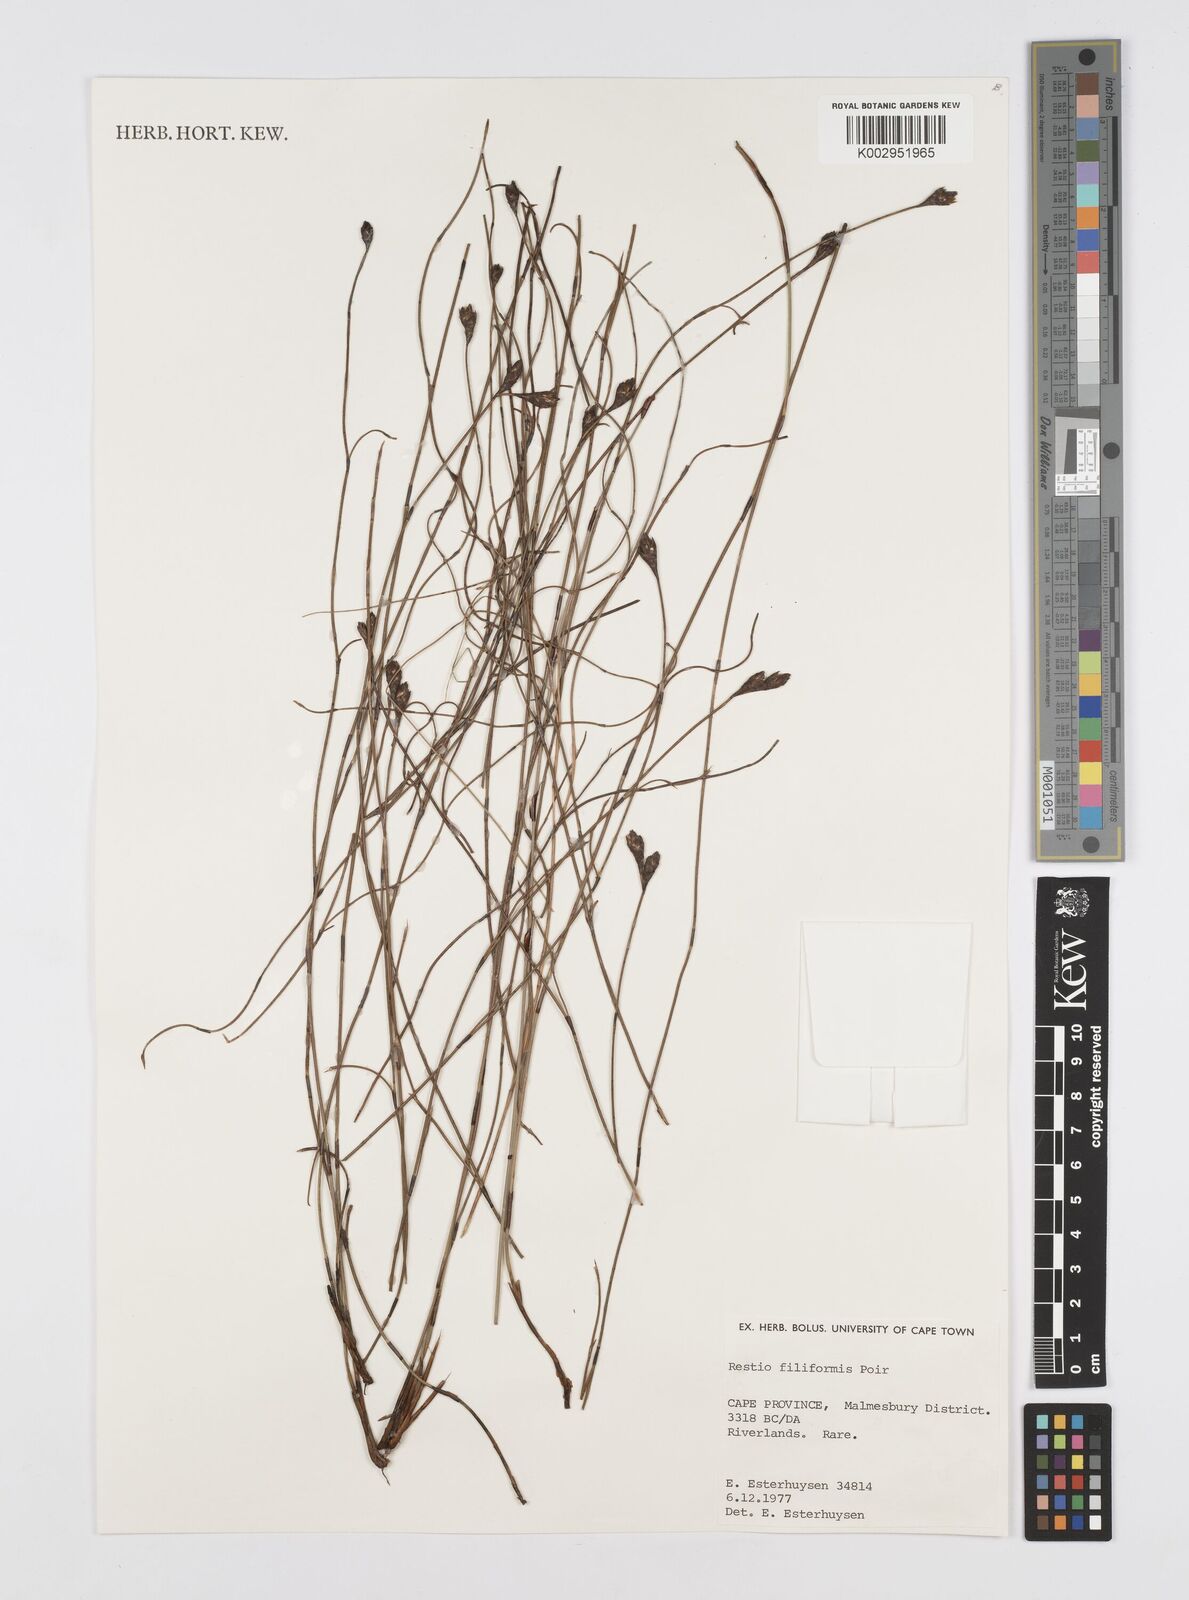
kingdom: Plantae
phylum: Tracheophyta
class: Liliopsida
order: Poales
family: Restionaceae
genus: Restio
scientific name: Restio filiformis
